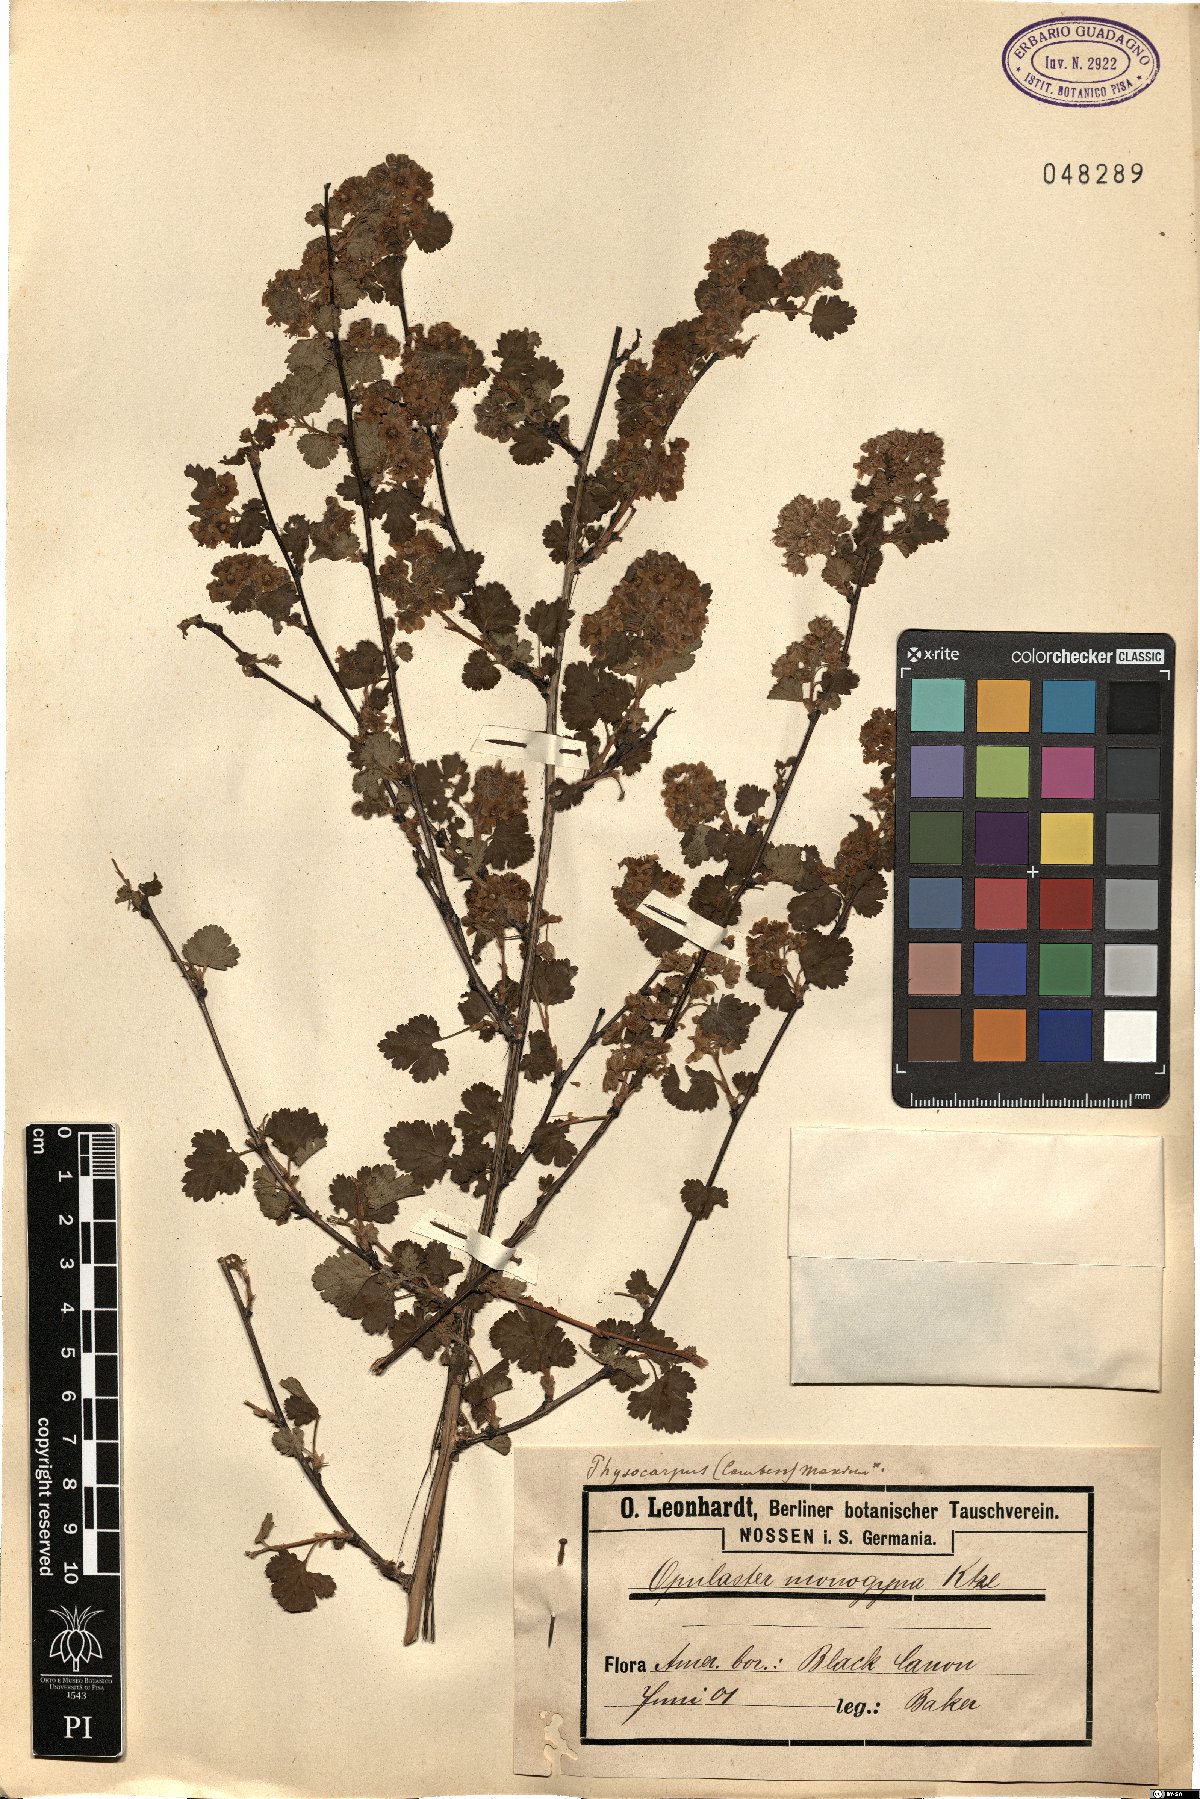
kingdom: Plantae
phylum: Tracheophyta
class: Magnoliopsida
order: Rosales
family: Rosaceae
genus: Physocarpus
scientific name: Physocarpus monogynus
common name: Mountain ninebark
